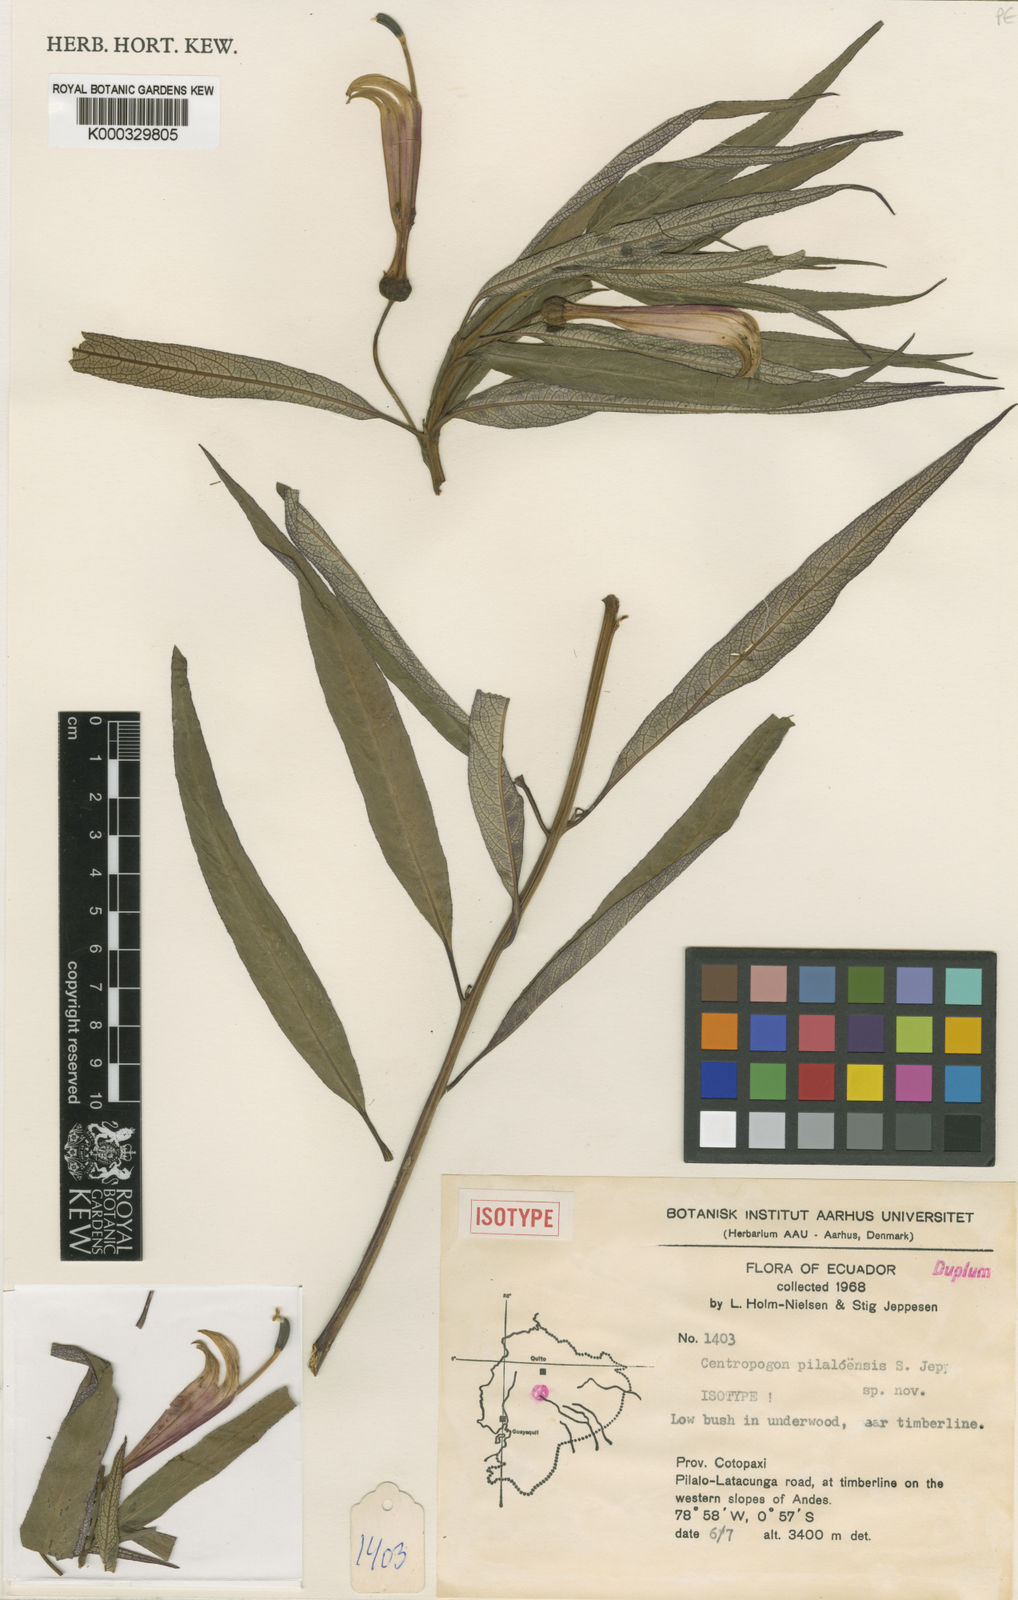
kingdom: Plantae
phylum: Tracheophyta
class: Magnoliopsida
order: Asterales
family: Campanulaceae
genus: Centropogon
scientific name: Centropogon pilalensis
